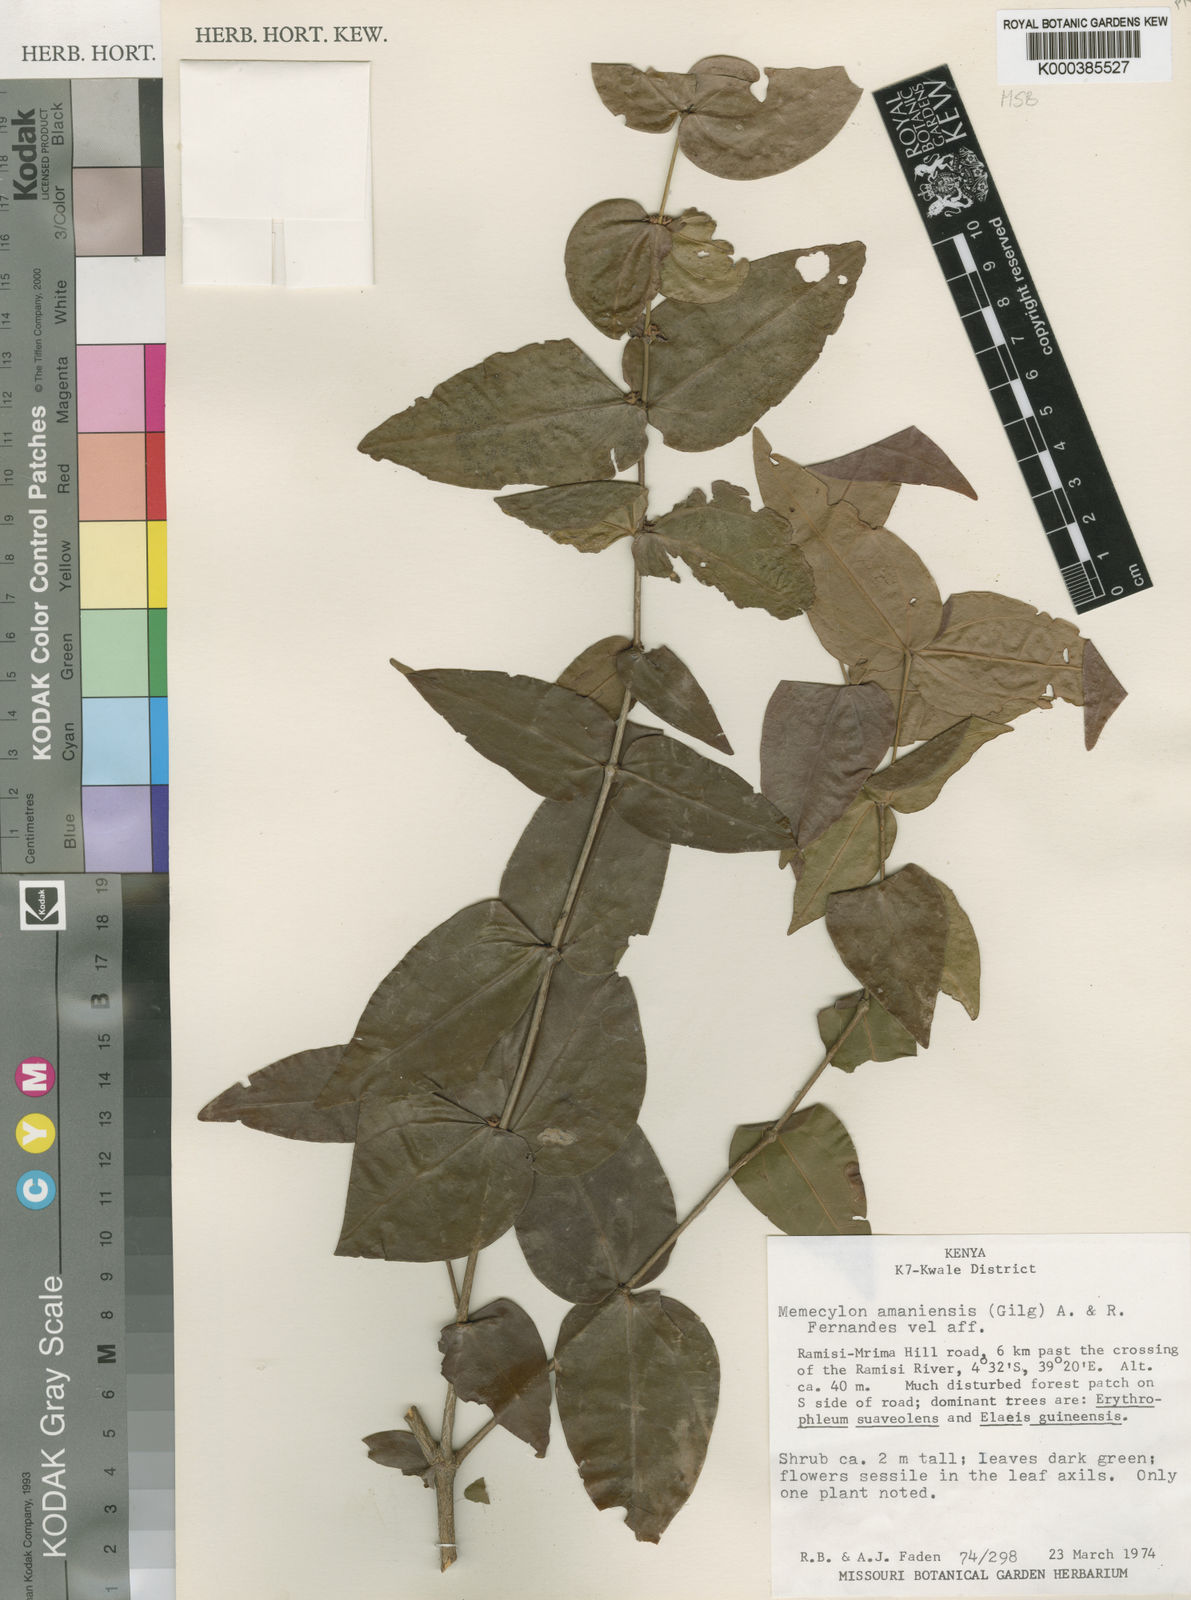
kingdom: Plantae
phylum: Tracheophyta
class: Magnoliopsida
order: Myrtales
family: Melastomataceae
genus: Warneckea
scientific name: Warneckea amaniensis
